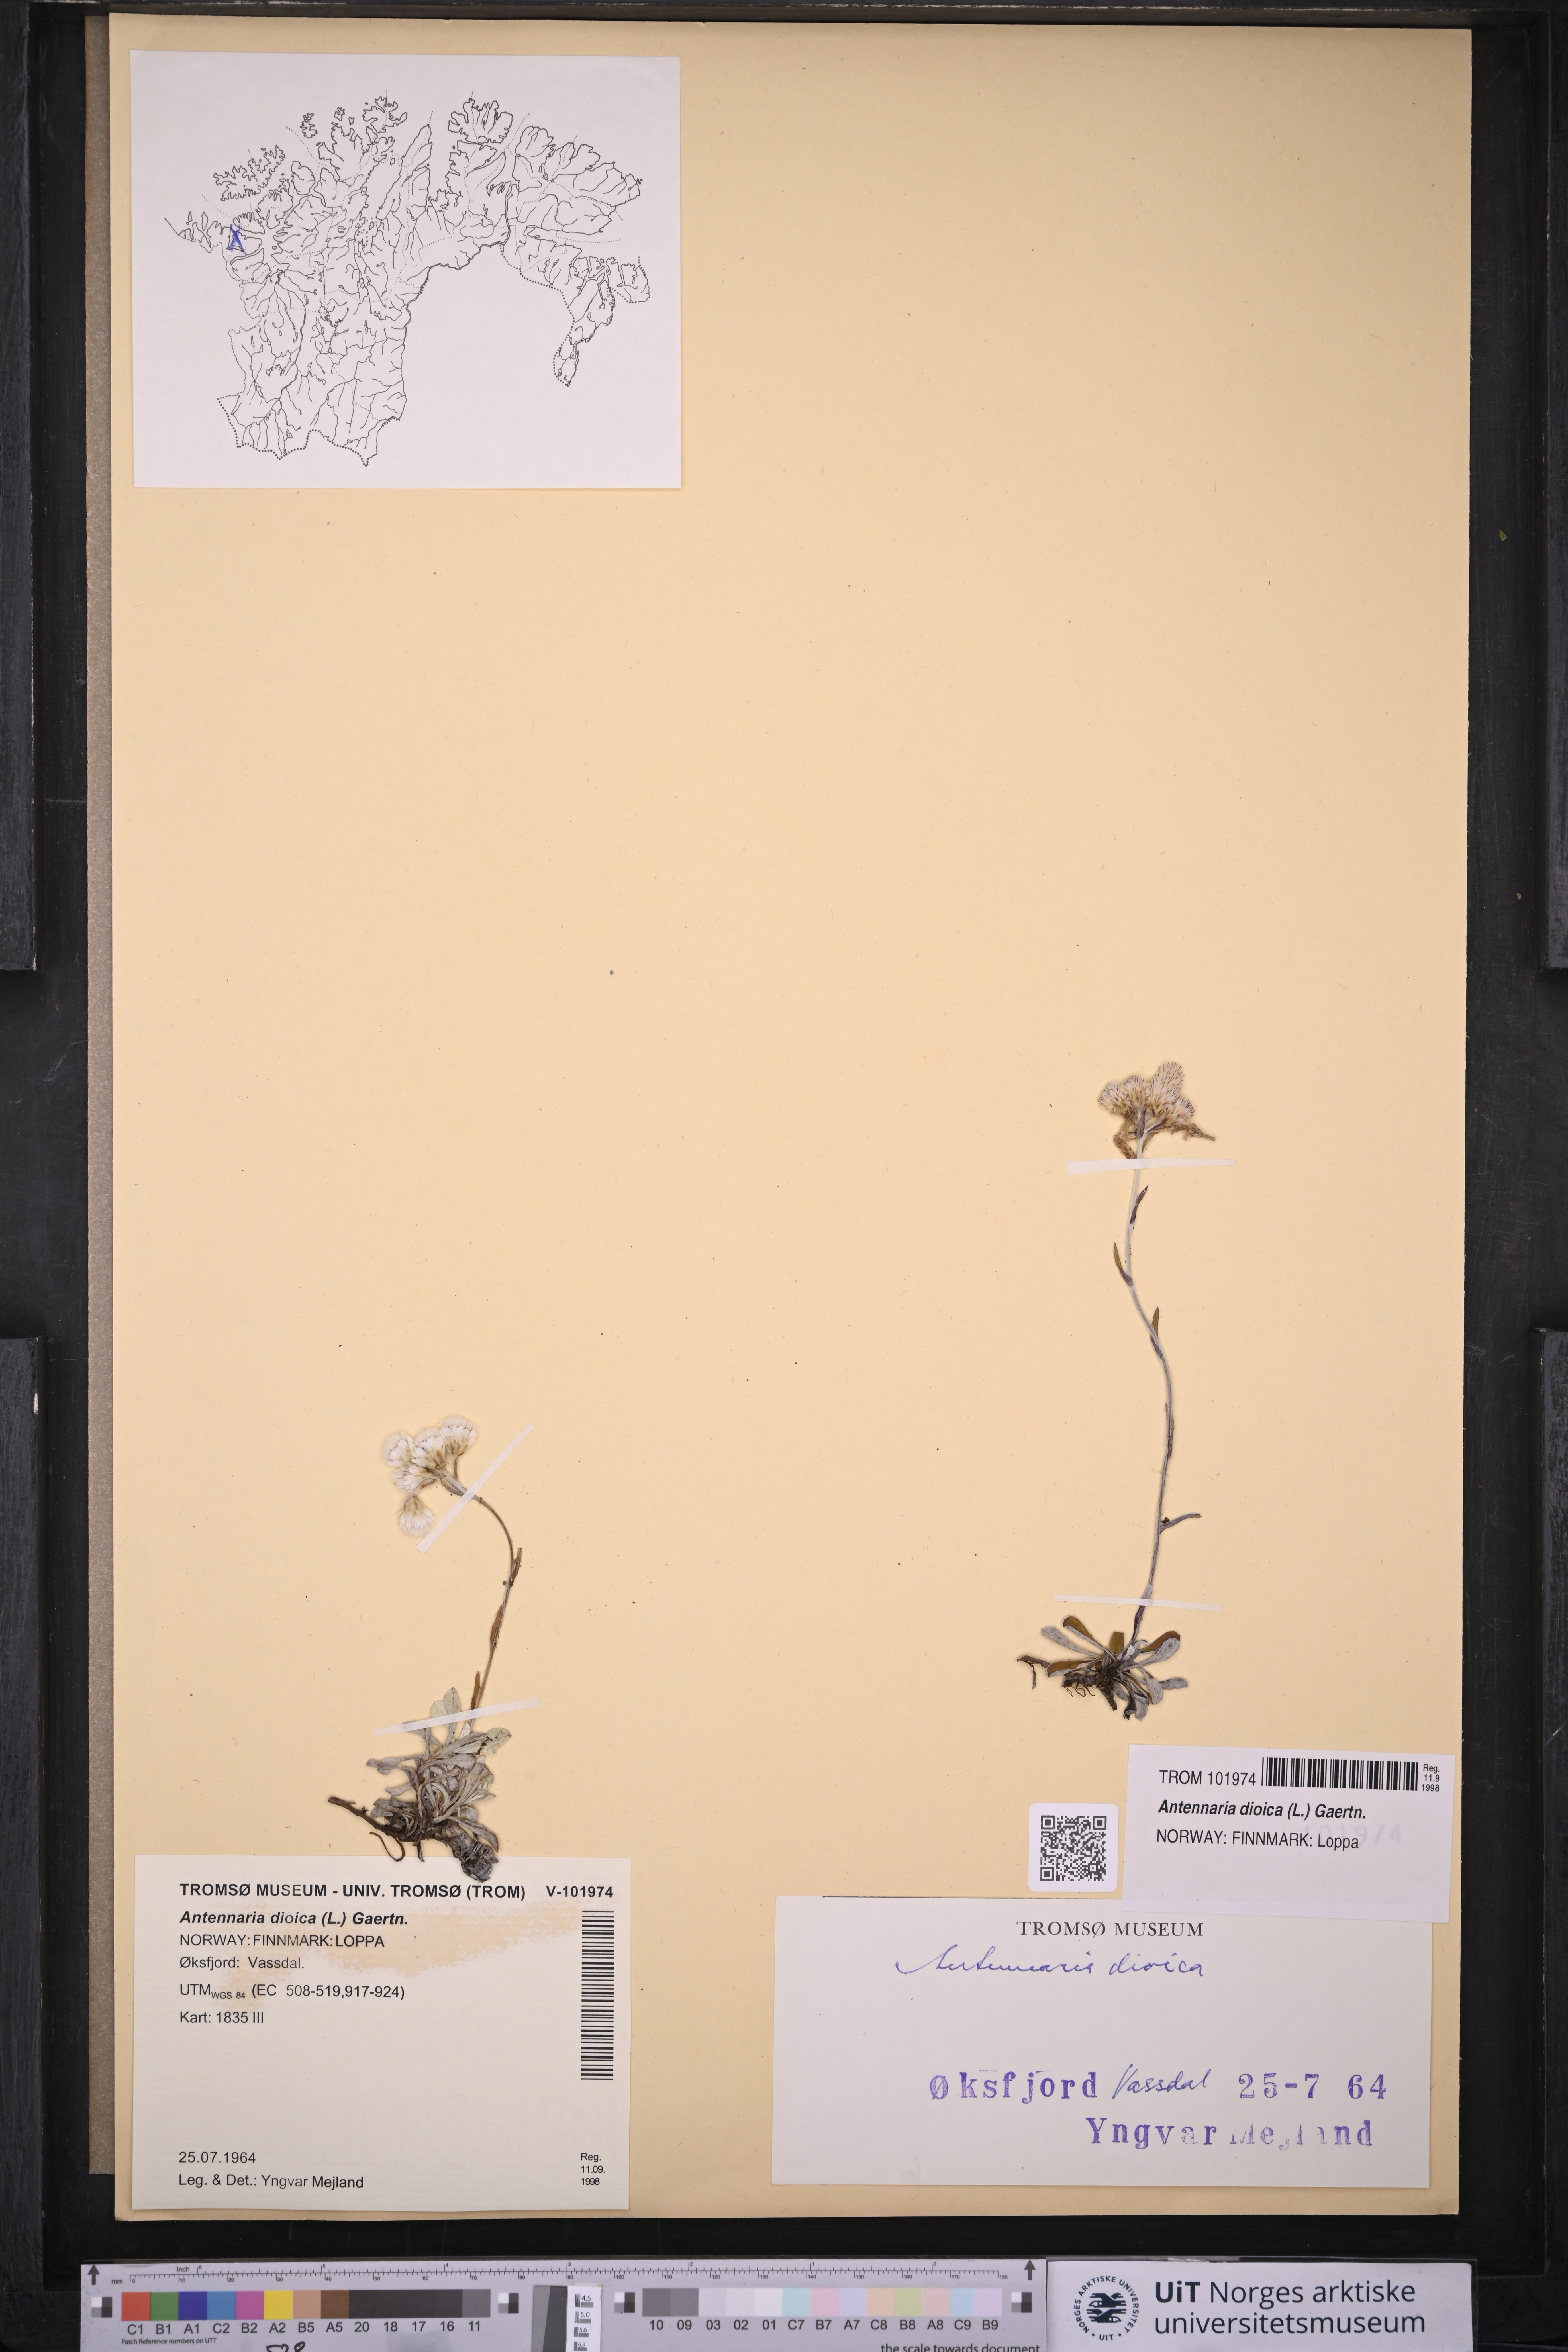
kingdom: Plantae
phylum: Tracheophyta
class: Magnoliopsida
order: Asterales
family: Asteraceae
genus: Antennaria
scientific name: Antennaria dioica
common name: Mountain everlasting
